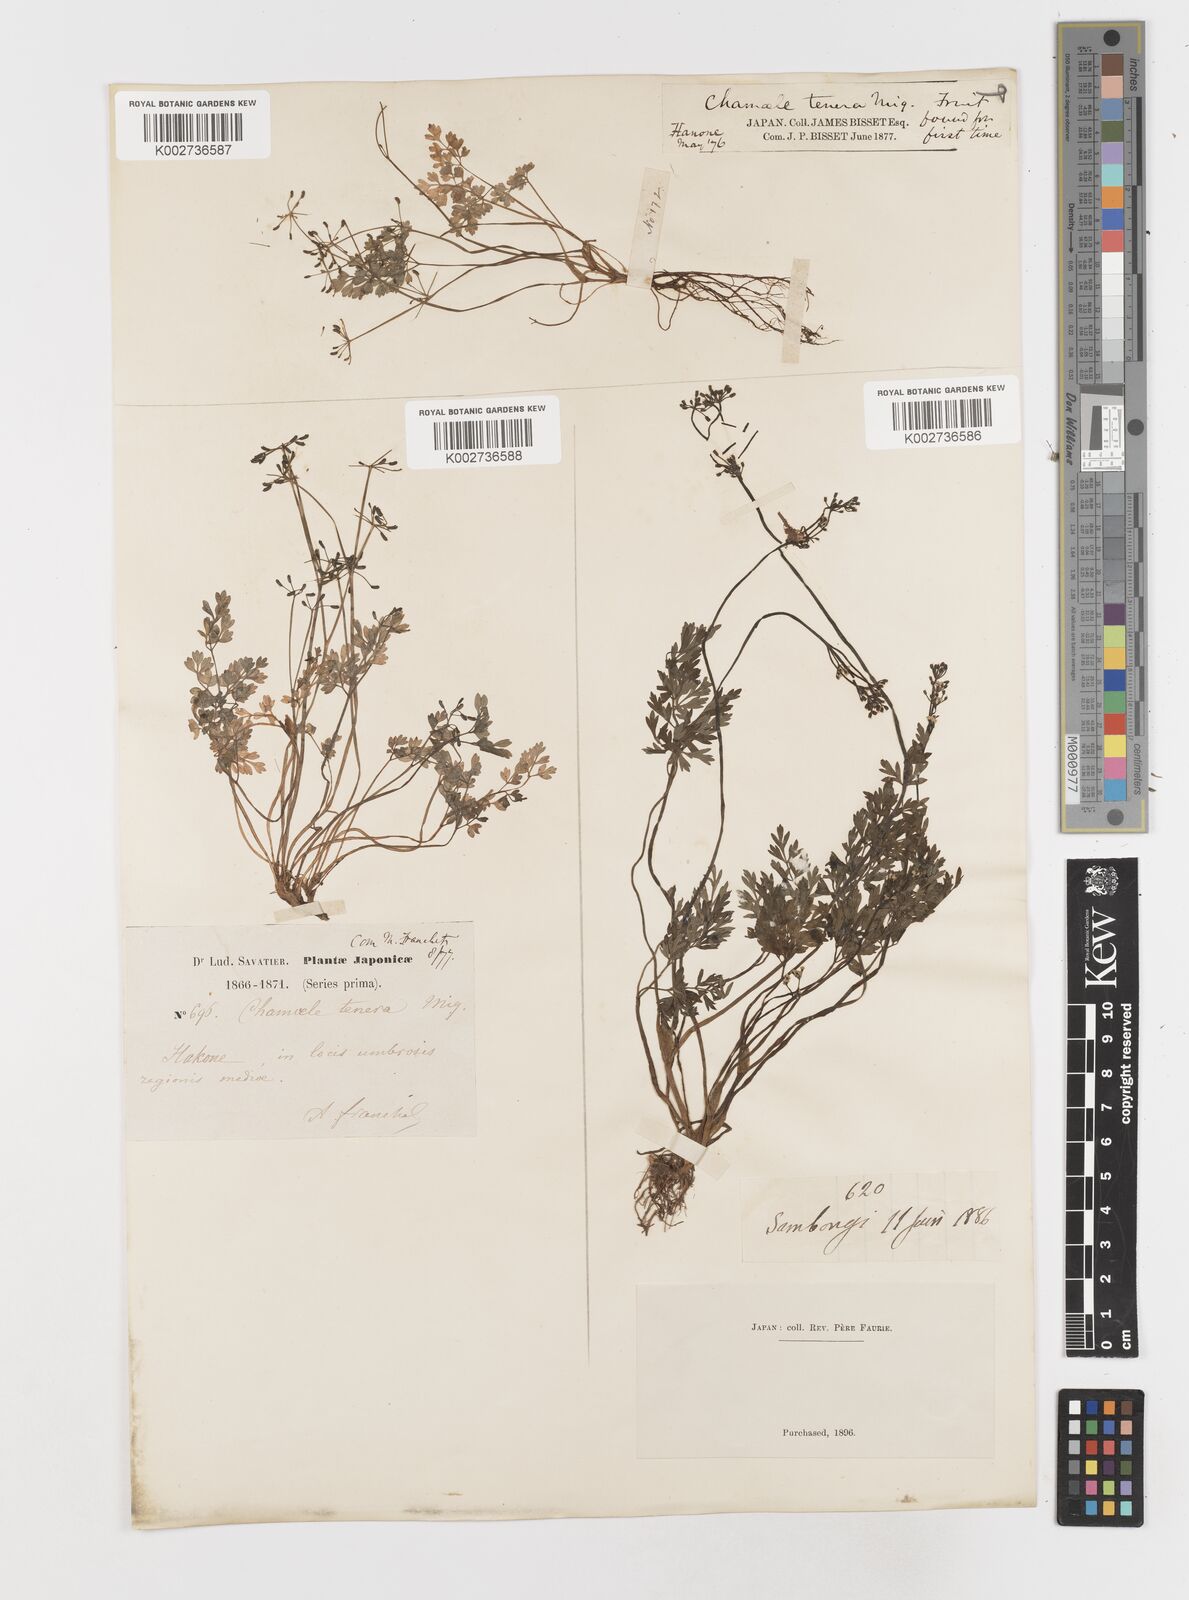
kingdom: Plantae
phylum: Tracheophyta
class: Magnoliopsida
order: Apiales
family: Apiaceae
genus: Aegopodium
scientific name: Aegopodium decumbens
